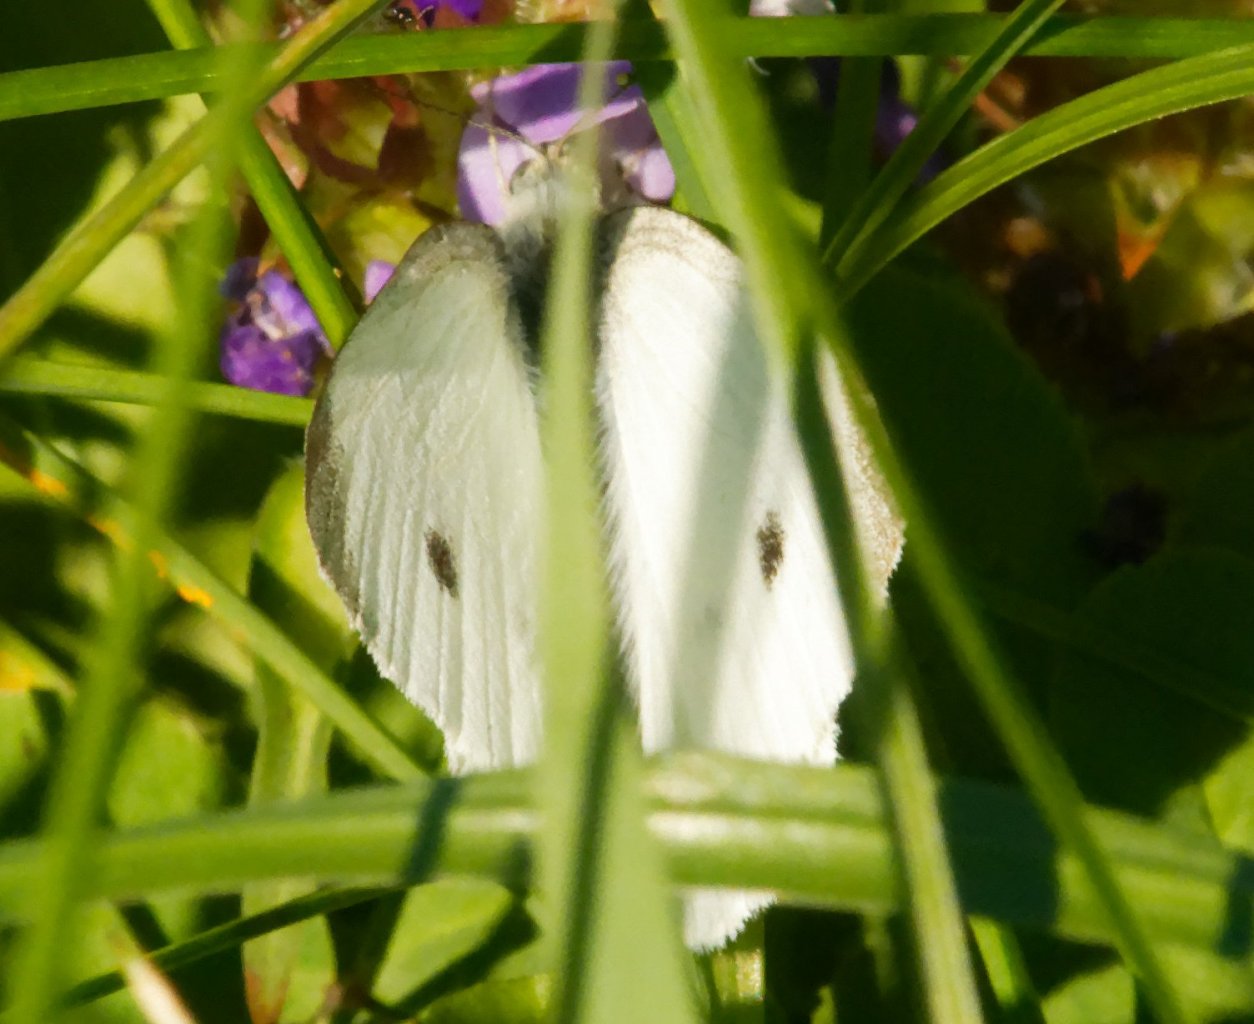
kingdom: Animalia
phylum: Arthropoda
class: Insecta
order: Lepidoptera
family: Pieridae
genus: Pieris
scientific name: Pieris rapae
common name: Cabbage White
